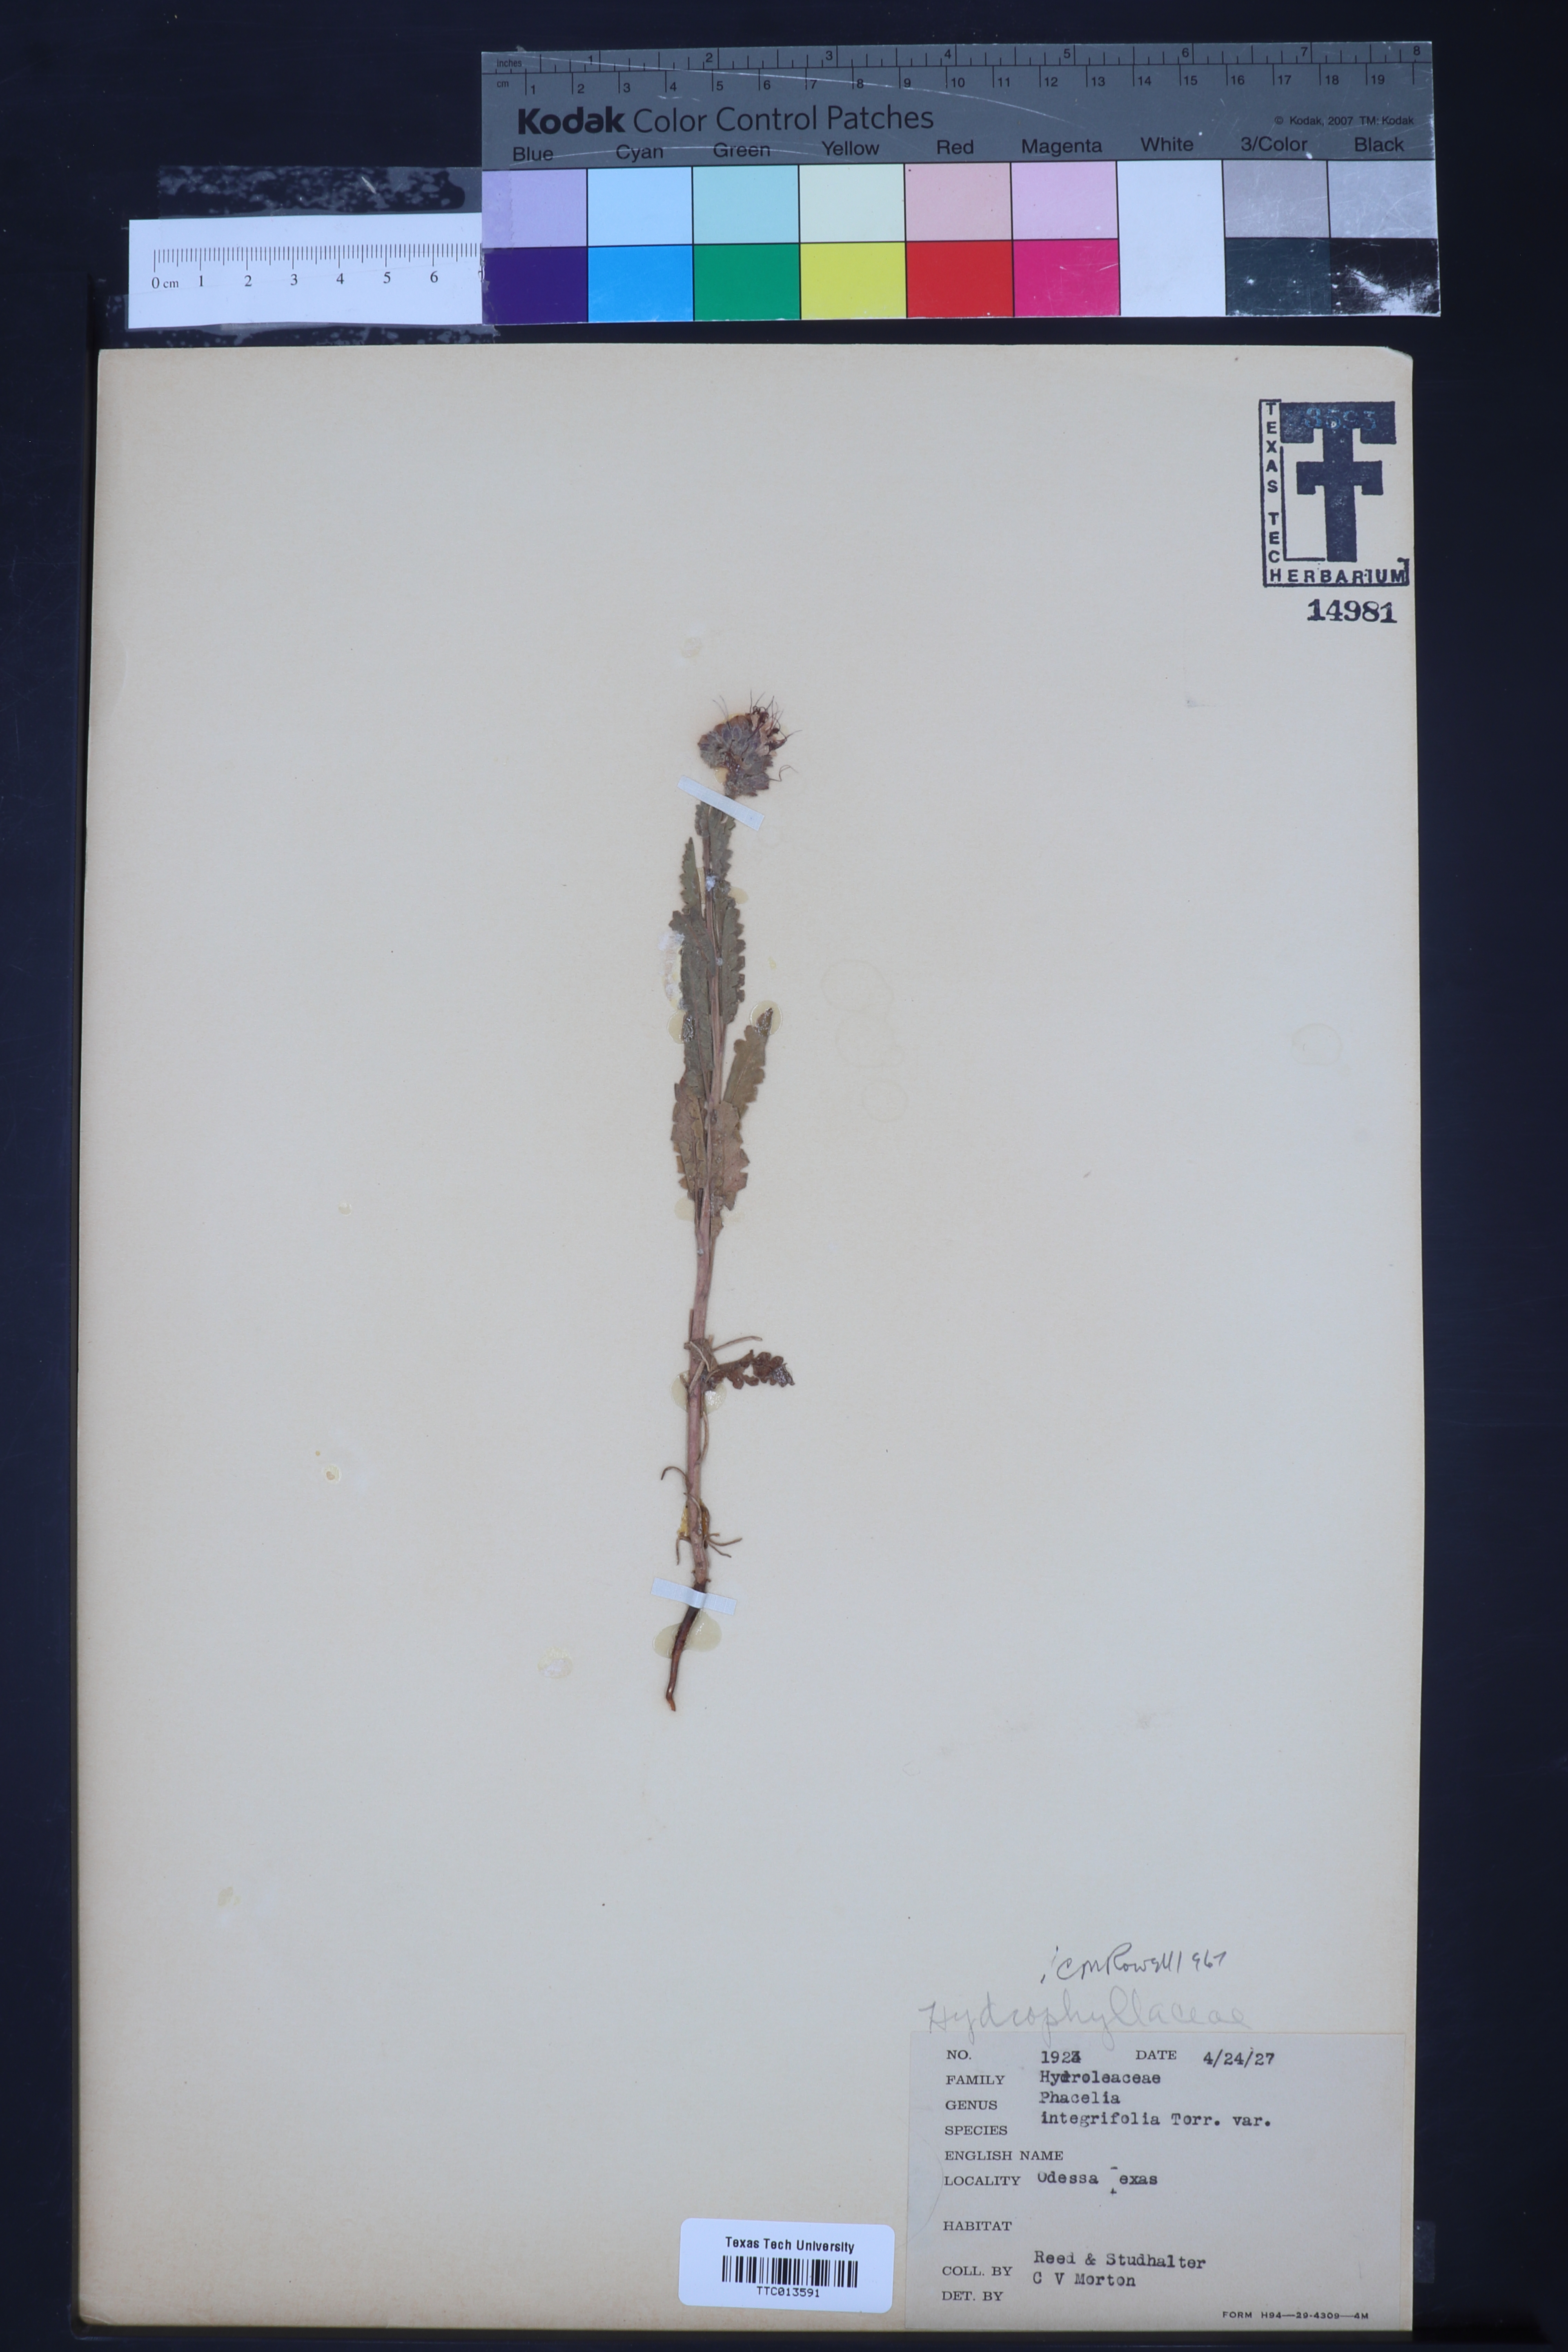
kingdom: Plantae
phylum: Tracheophyta
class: Magnoliopsida
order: Boraginales
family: Hydrophyllaceae
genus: Phacelia
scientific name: Phacelia integrifolia
